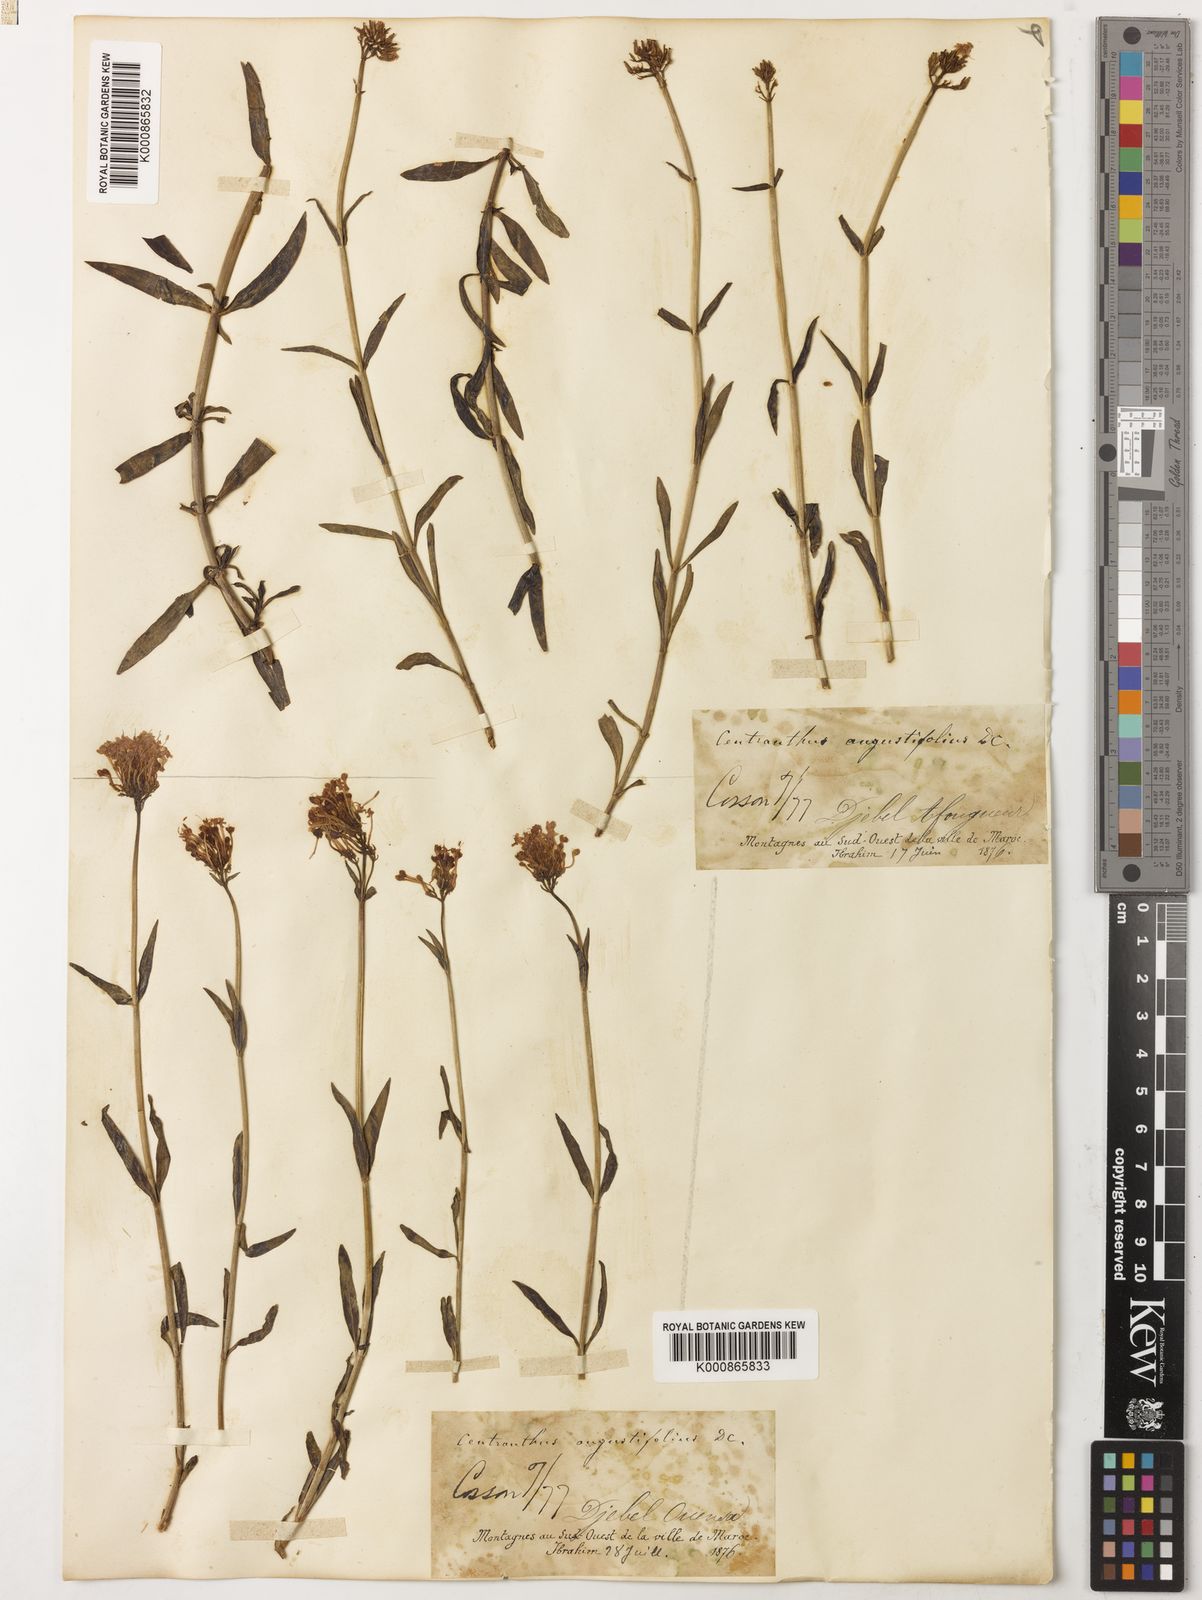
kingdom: Plantae
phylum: Tracheophyta
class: Magnoliopsida
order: Dipsacales
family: Caprifoliaceae
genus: Centranthus
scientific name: Centranthus angustifolius
